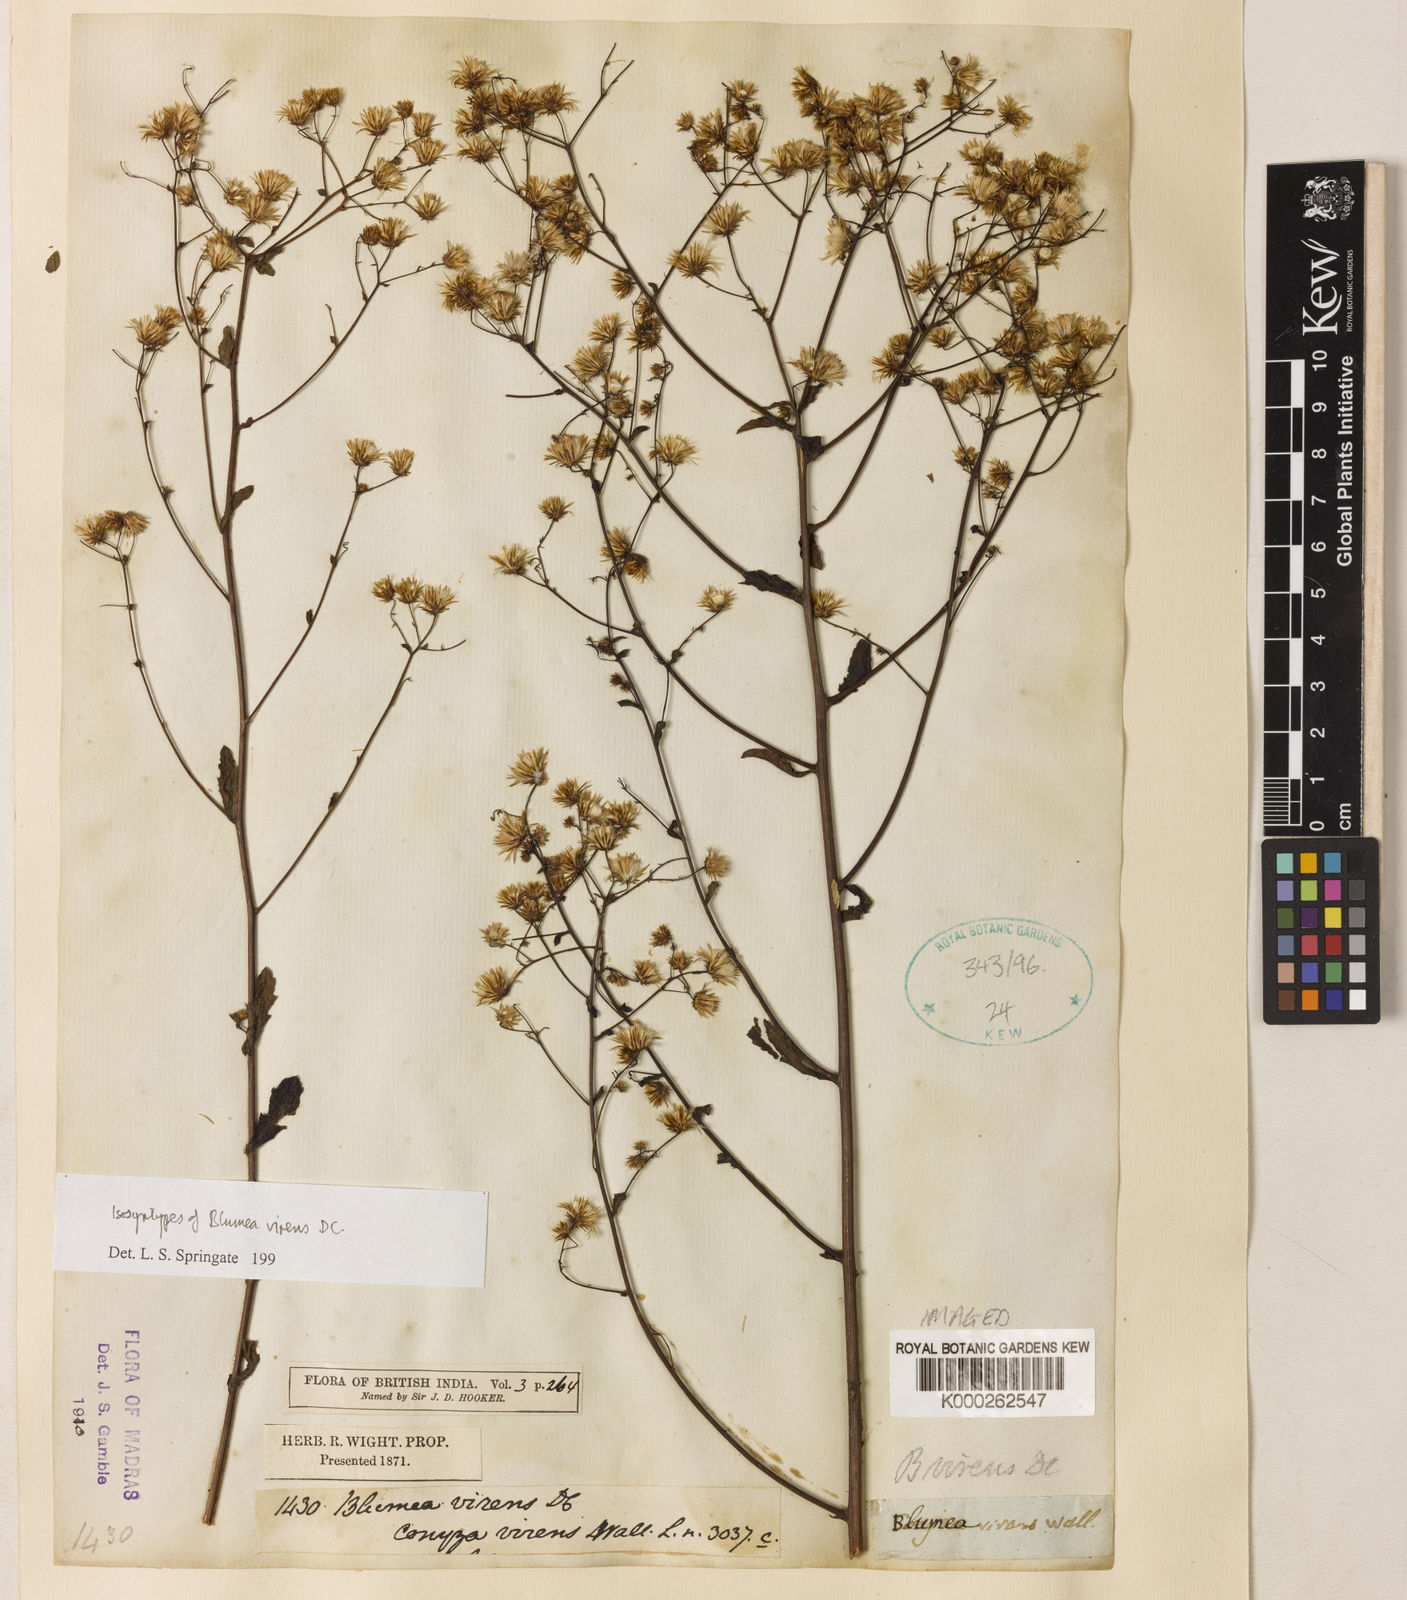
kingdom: Plantae
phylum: Tracheophyta
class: Magnoliopsida
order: Asterales
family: Asteraceae
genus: Blumea
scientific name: Blumea virens
